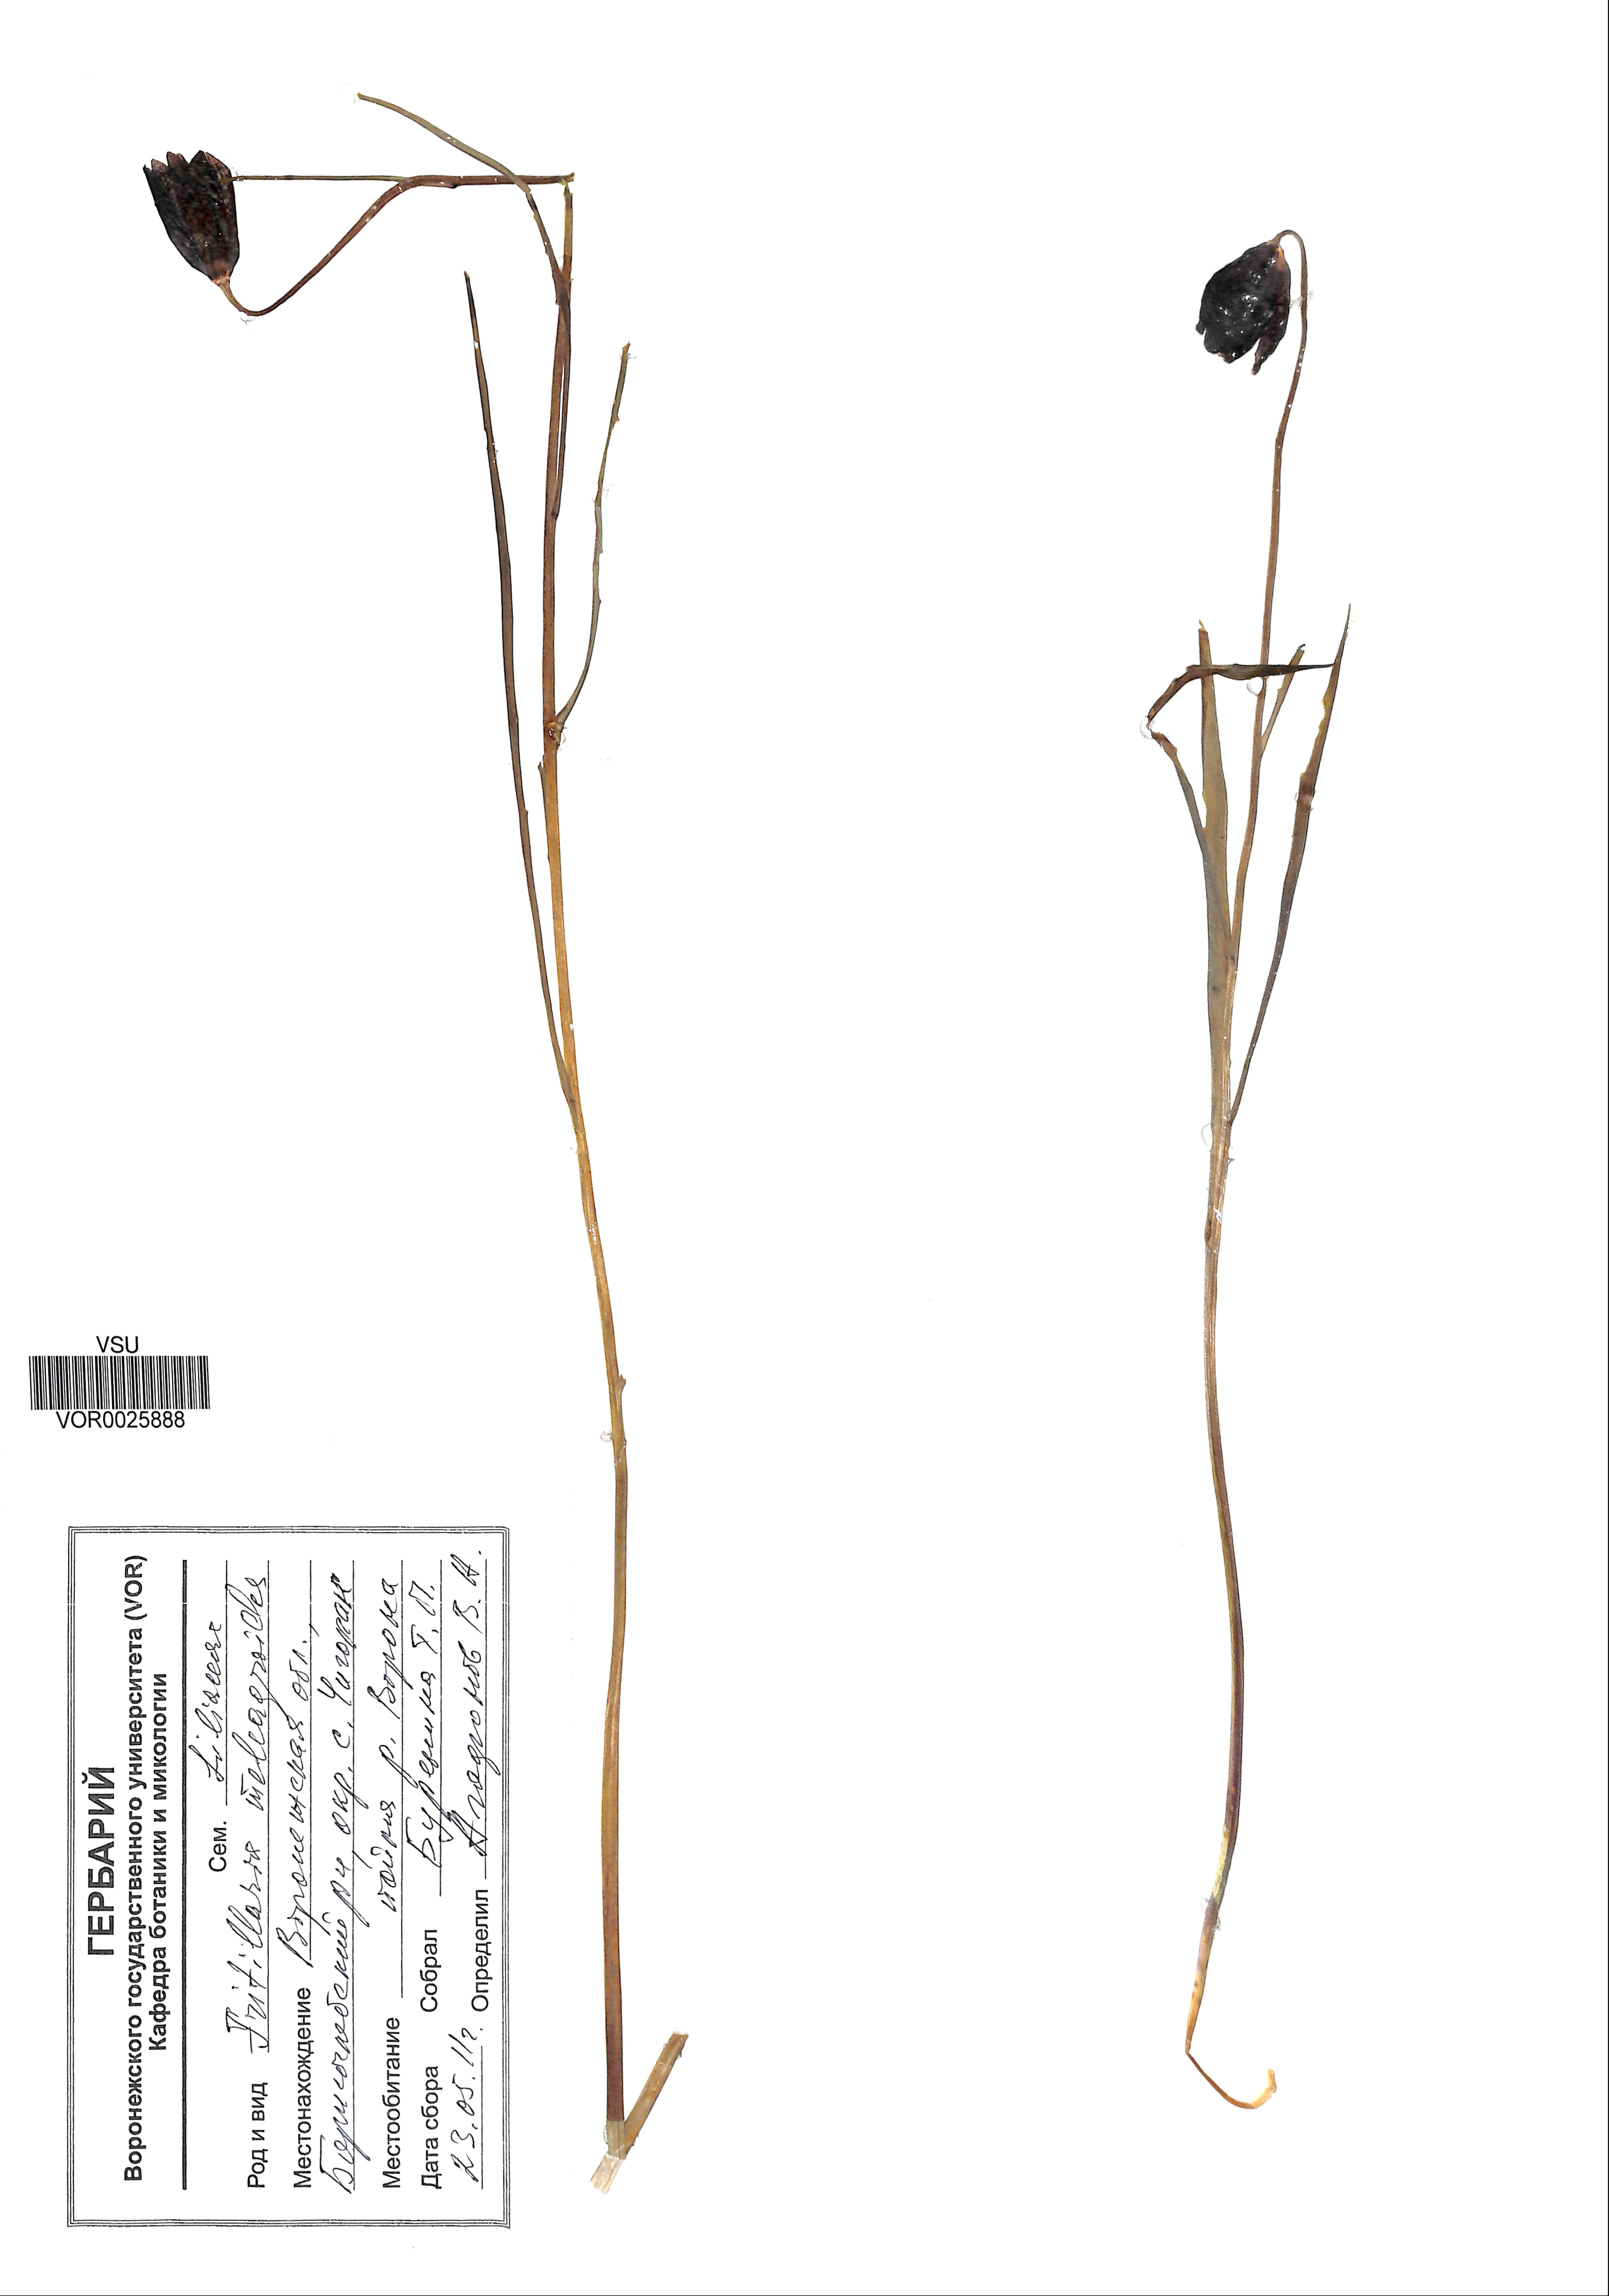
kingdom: Plantae
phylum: Tracheophyta
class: Liliopsida
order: Liliales
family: Liliaceae
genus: Fritillaria
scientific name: Fritillaria meleagroides
